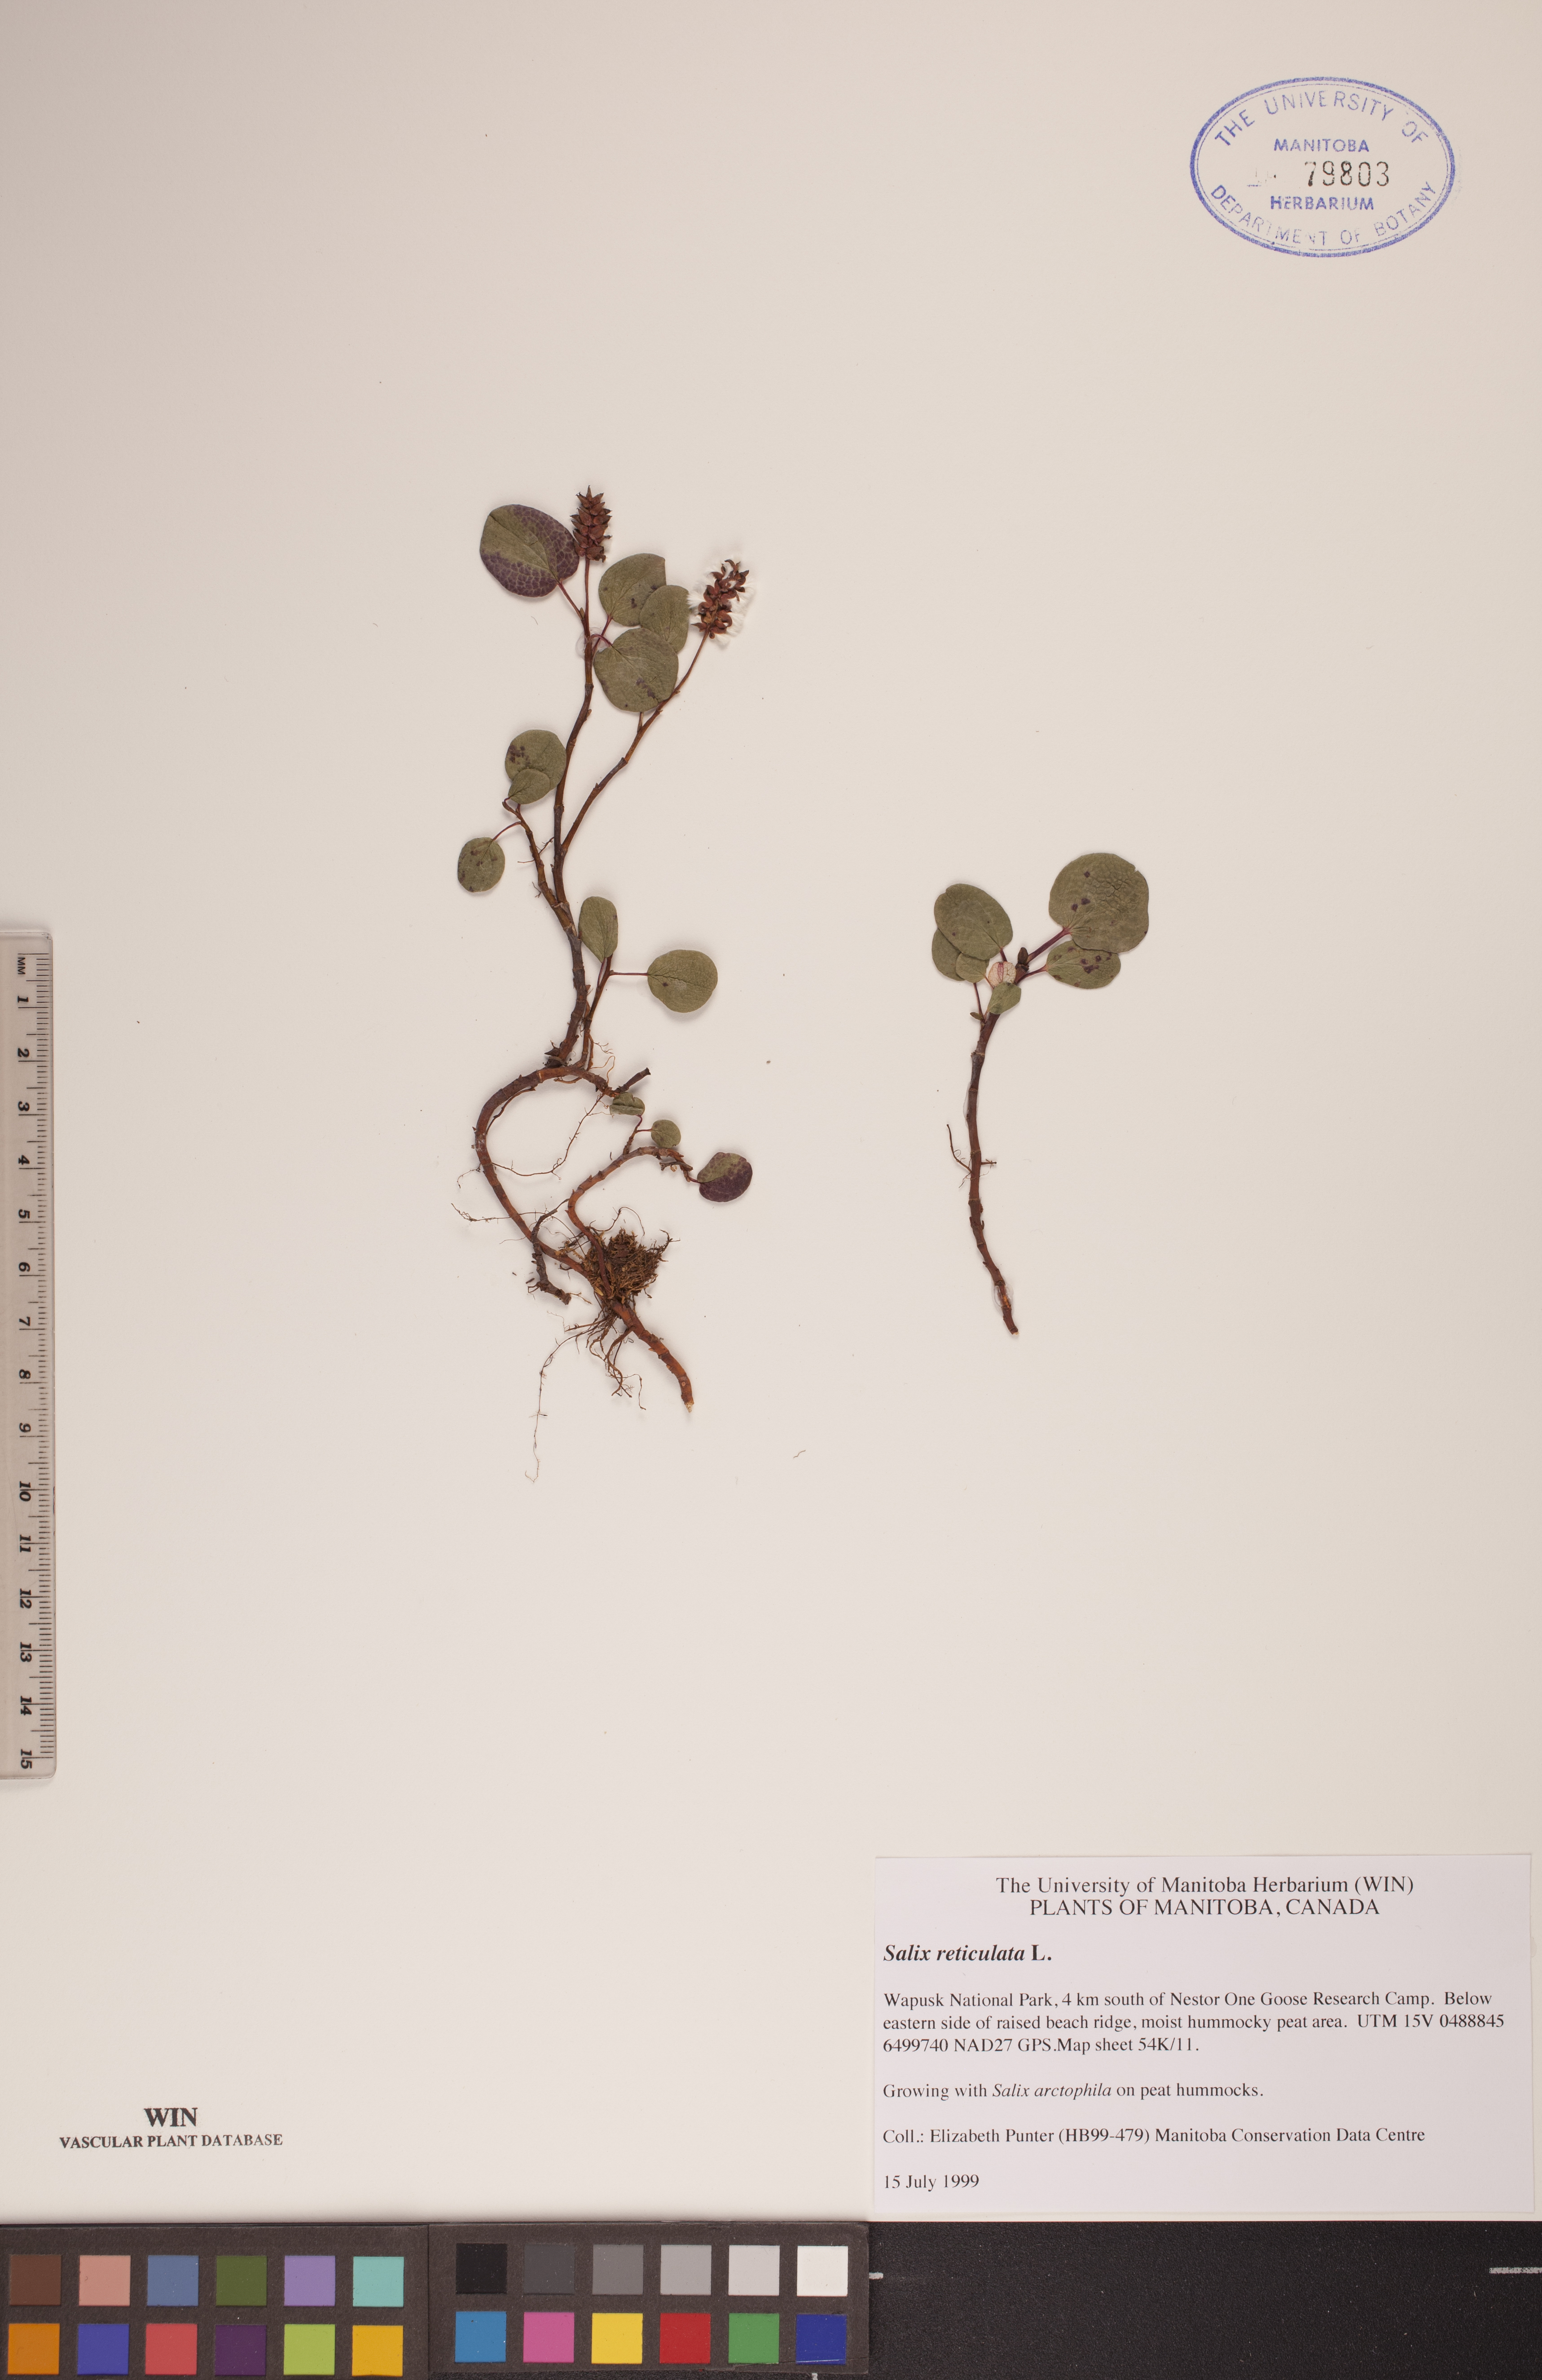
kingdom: Plantae
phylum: Tracheophyta
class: Magnoliopsida
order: Malpighiales
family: Salicaceae
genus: Salix
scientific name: Salix reticulata
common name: Net-leaved willow
